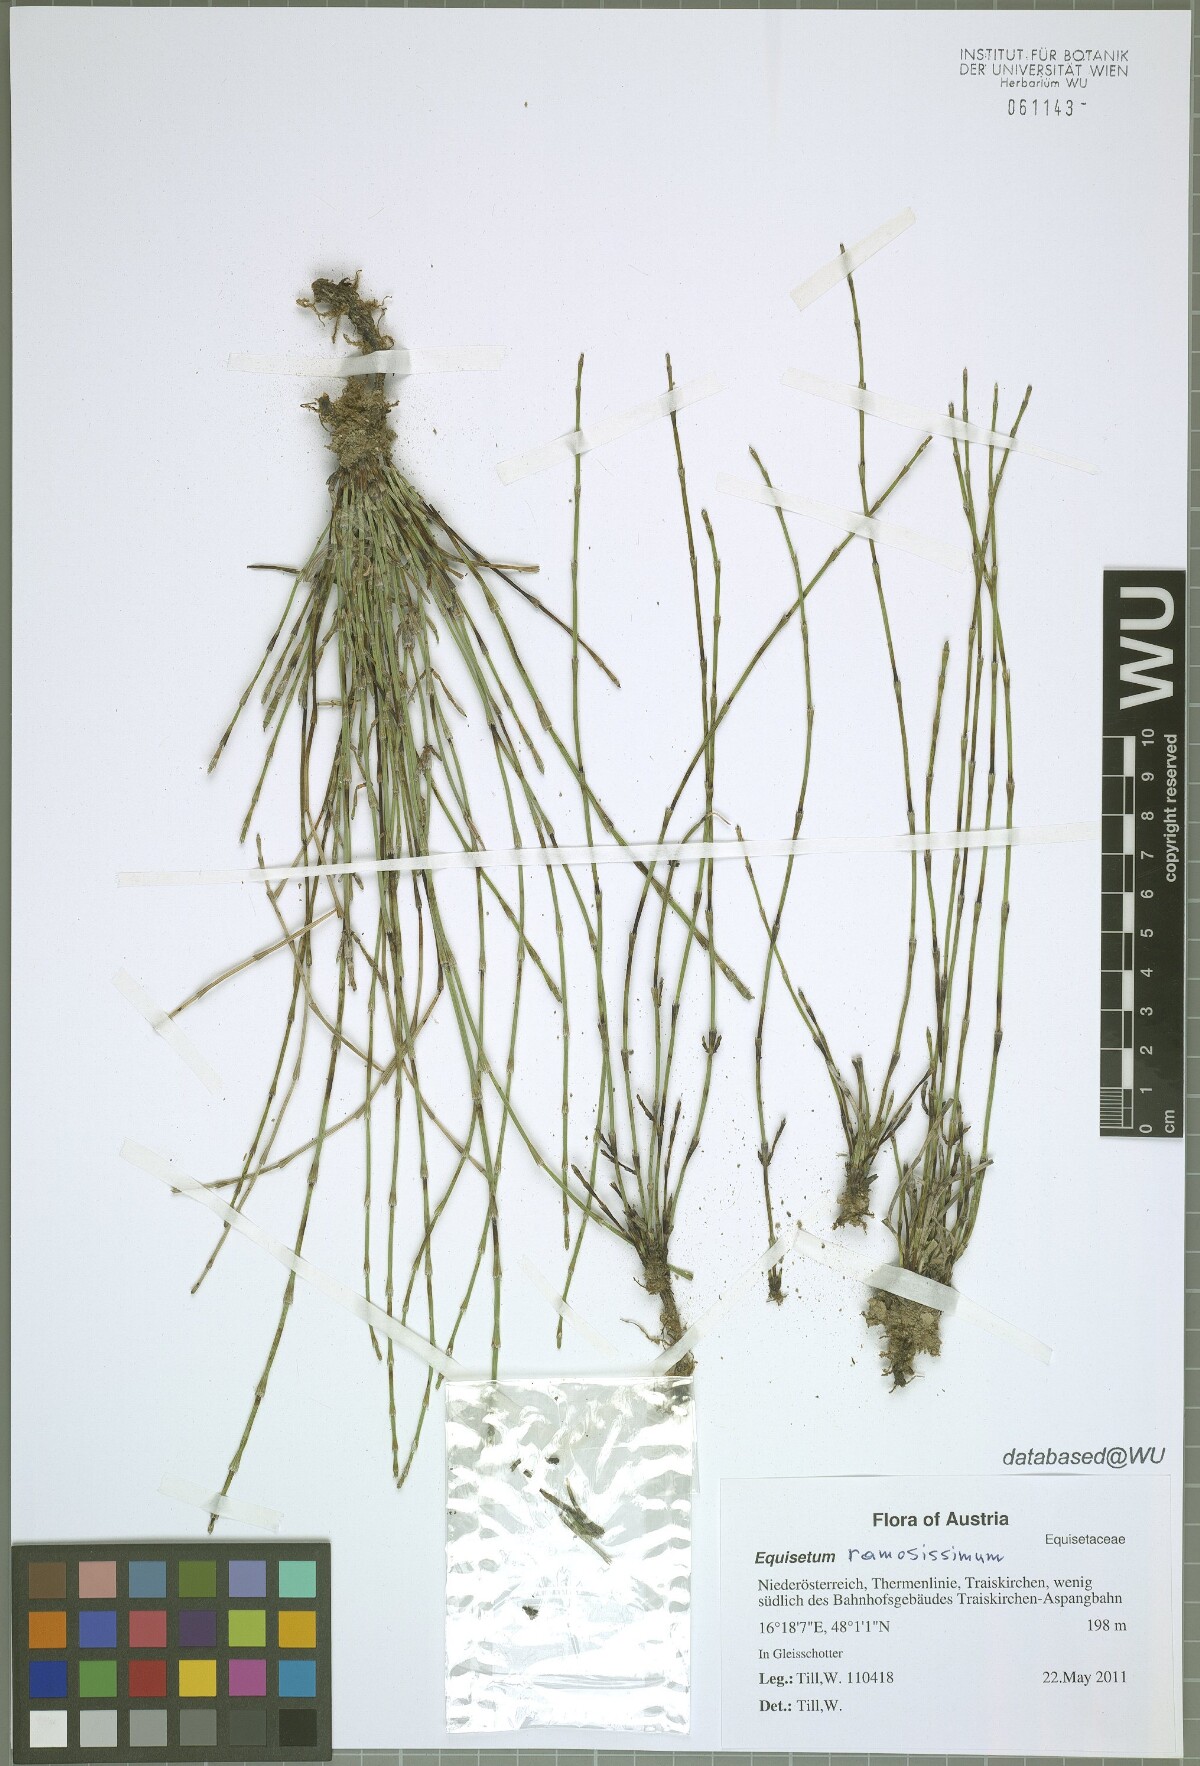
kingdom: Plantae
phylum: Tracheophyta
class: Polypodiopsida
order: Equisetales
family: Equisetaceae
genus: Equisetum
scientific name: Equisetum ramosissimum
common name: Branched horsetail
